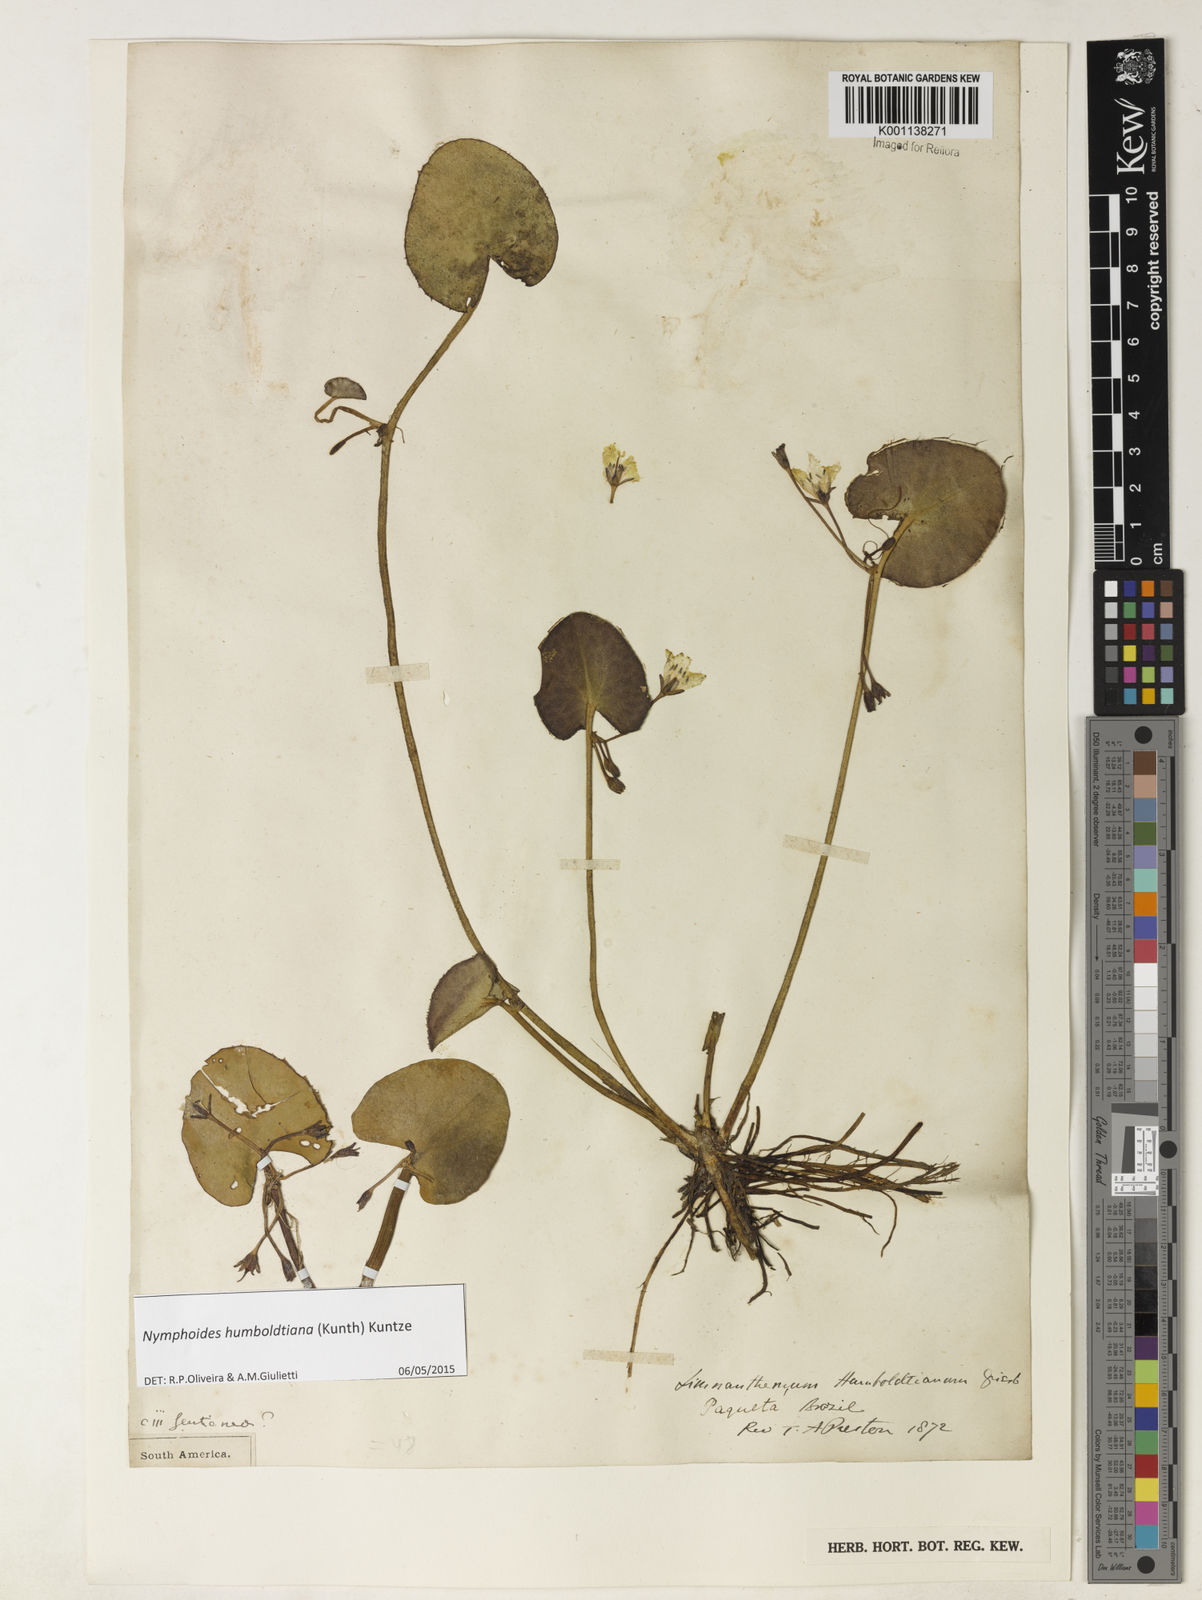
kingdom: Plantae
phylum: Tracheophyta
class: Magnoliopsida
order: Asterales
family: Menyanthaceae
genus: Nymphoides
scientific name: Nymphoides humboldtiana
